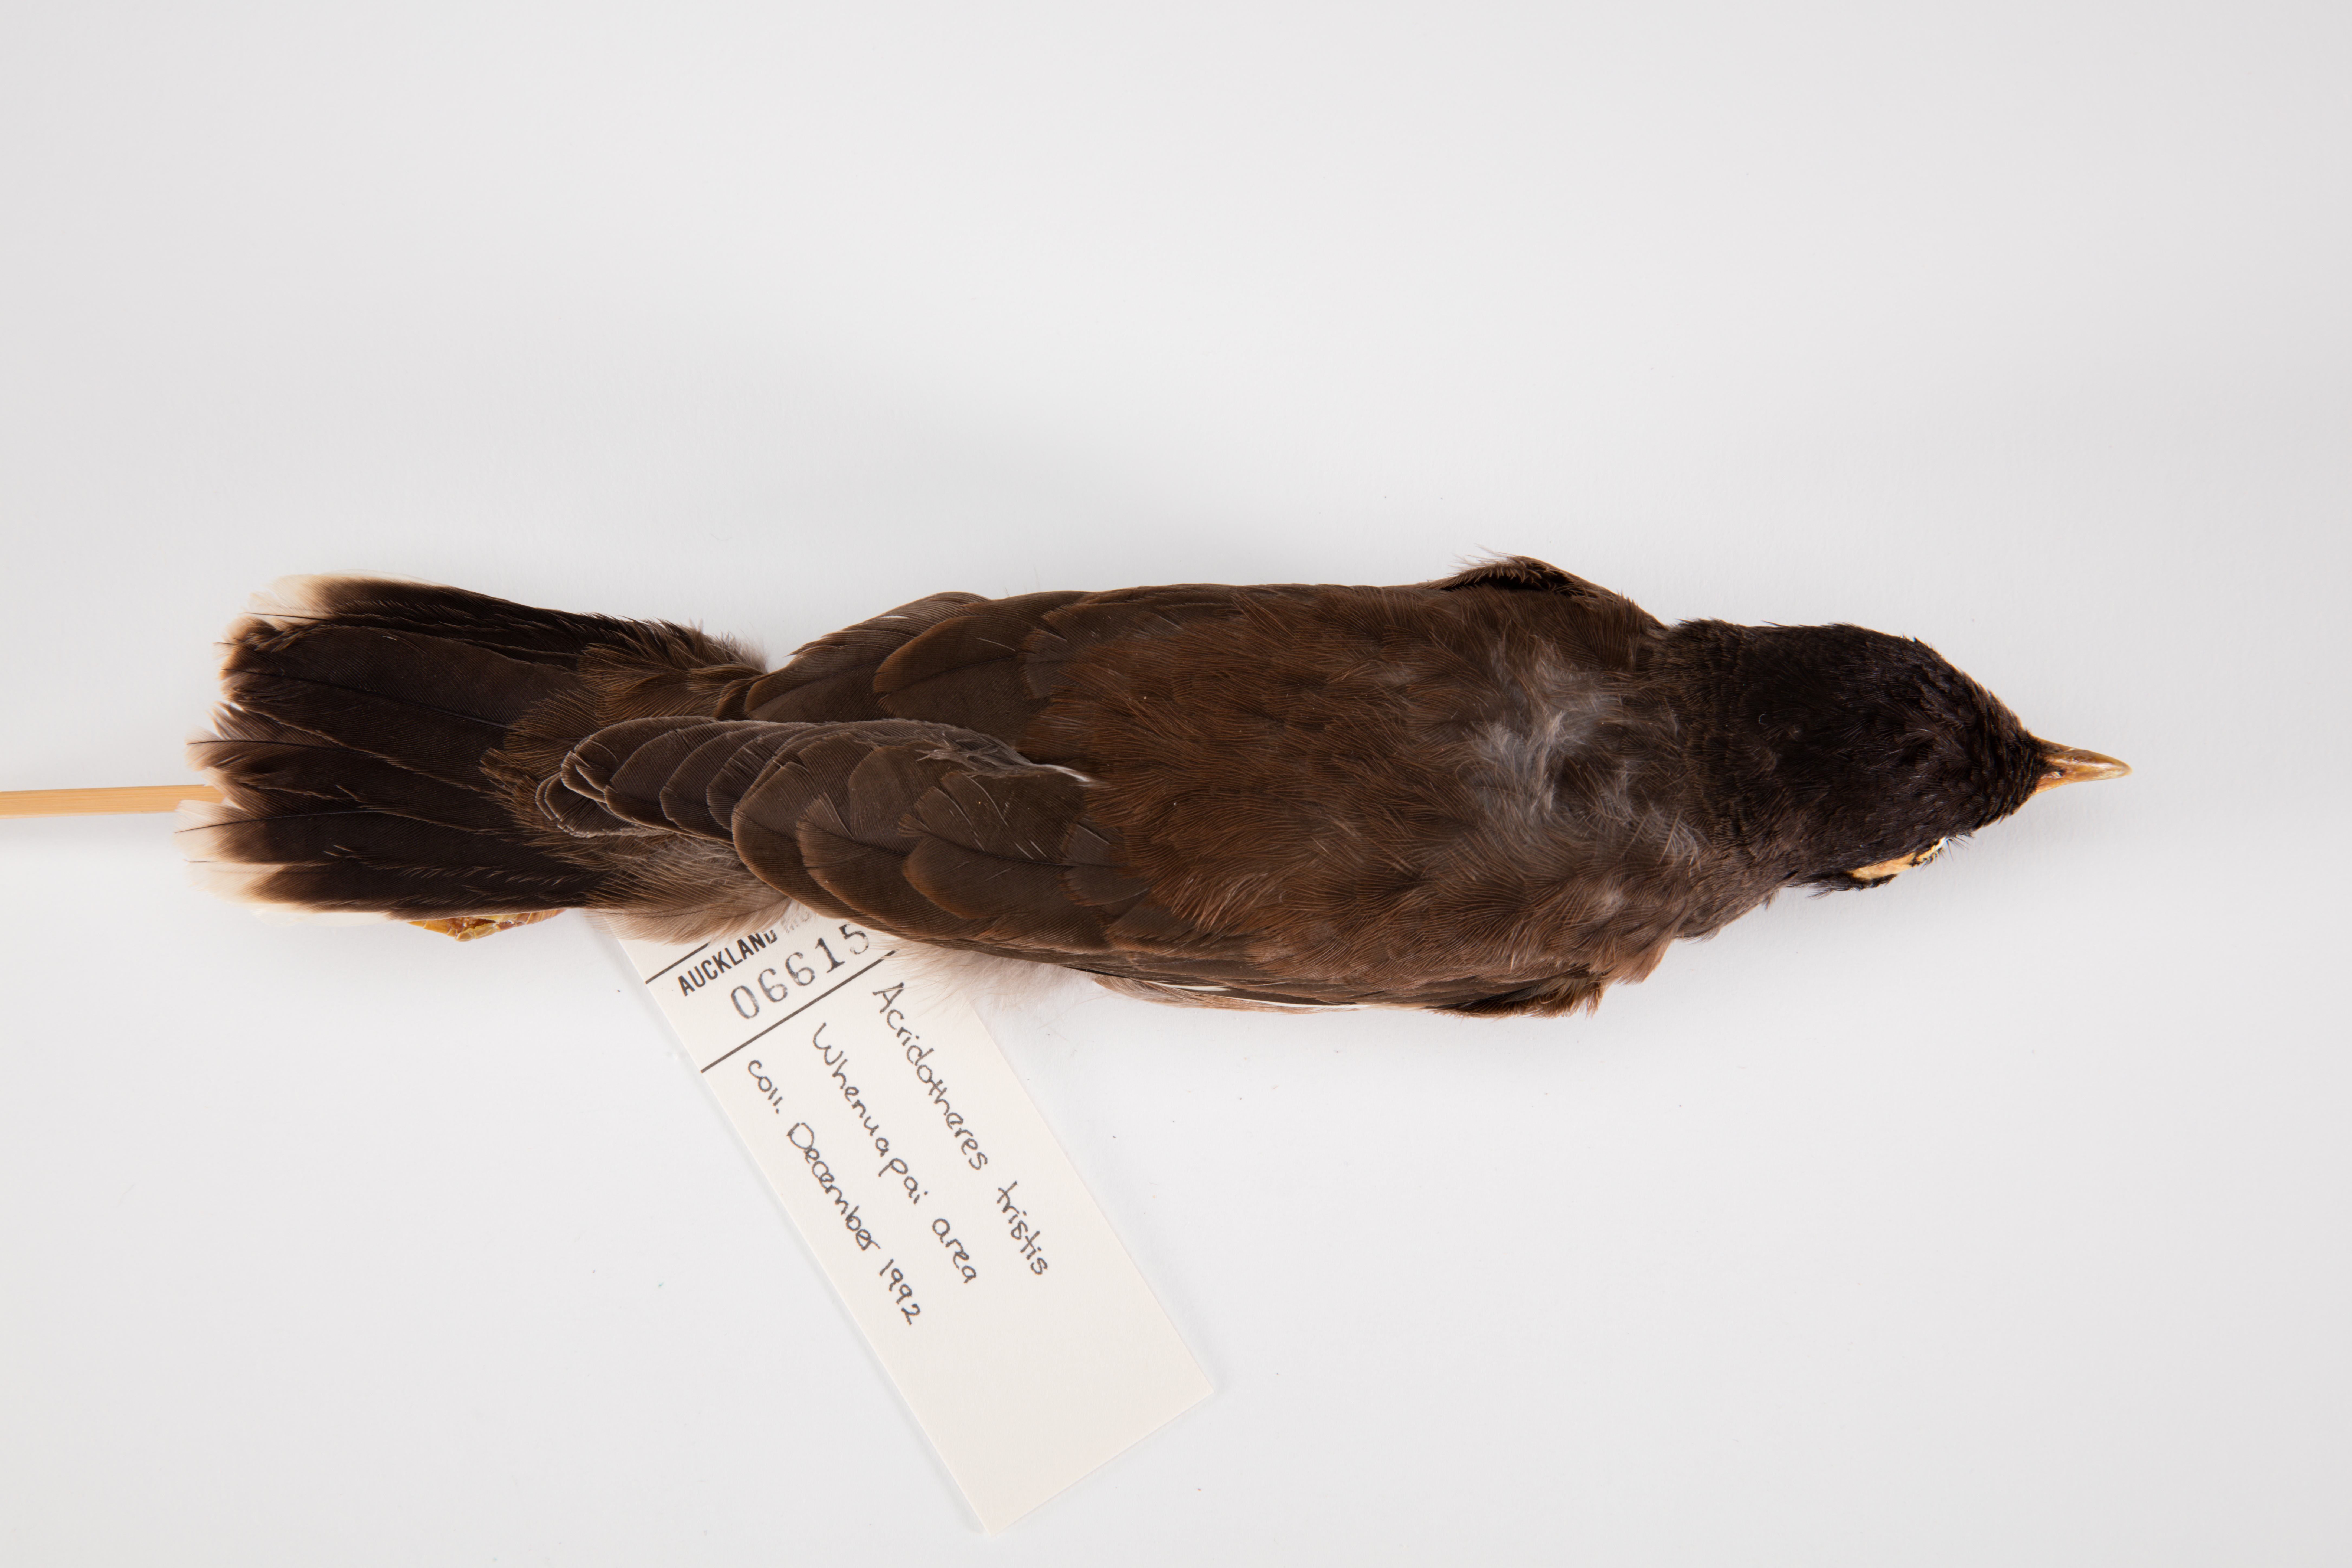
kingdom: Animalia
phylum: Chordata
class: Aves
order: Passeriformes
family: Sturnidae
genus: Acridotheres
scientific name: Acridotheres tristis
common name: Common myna
